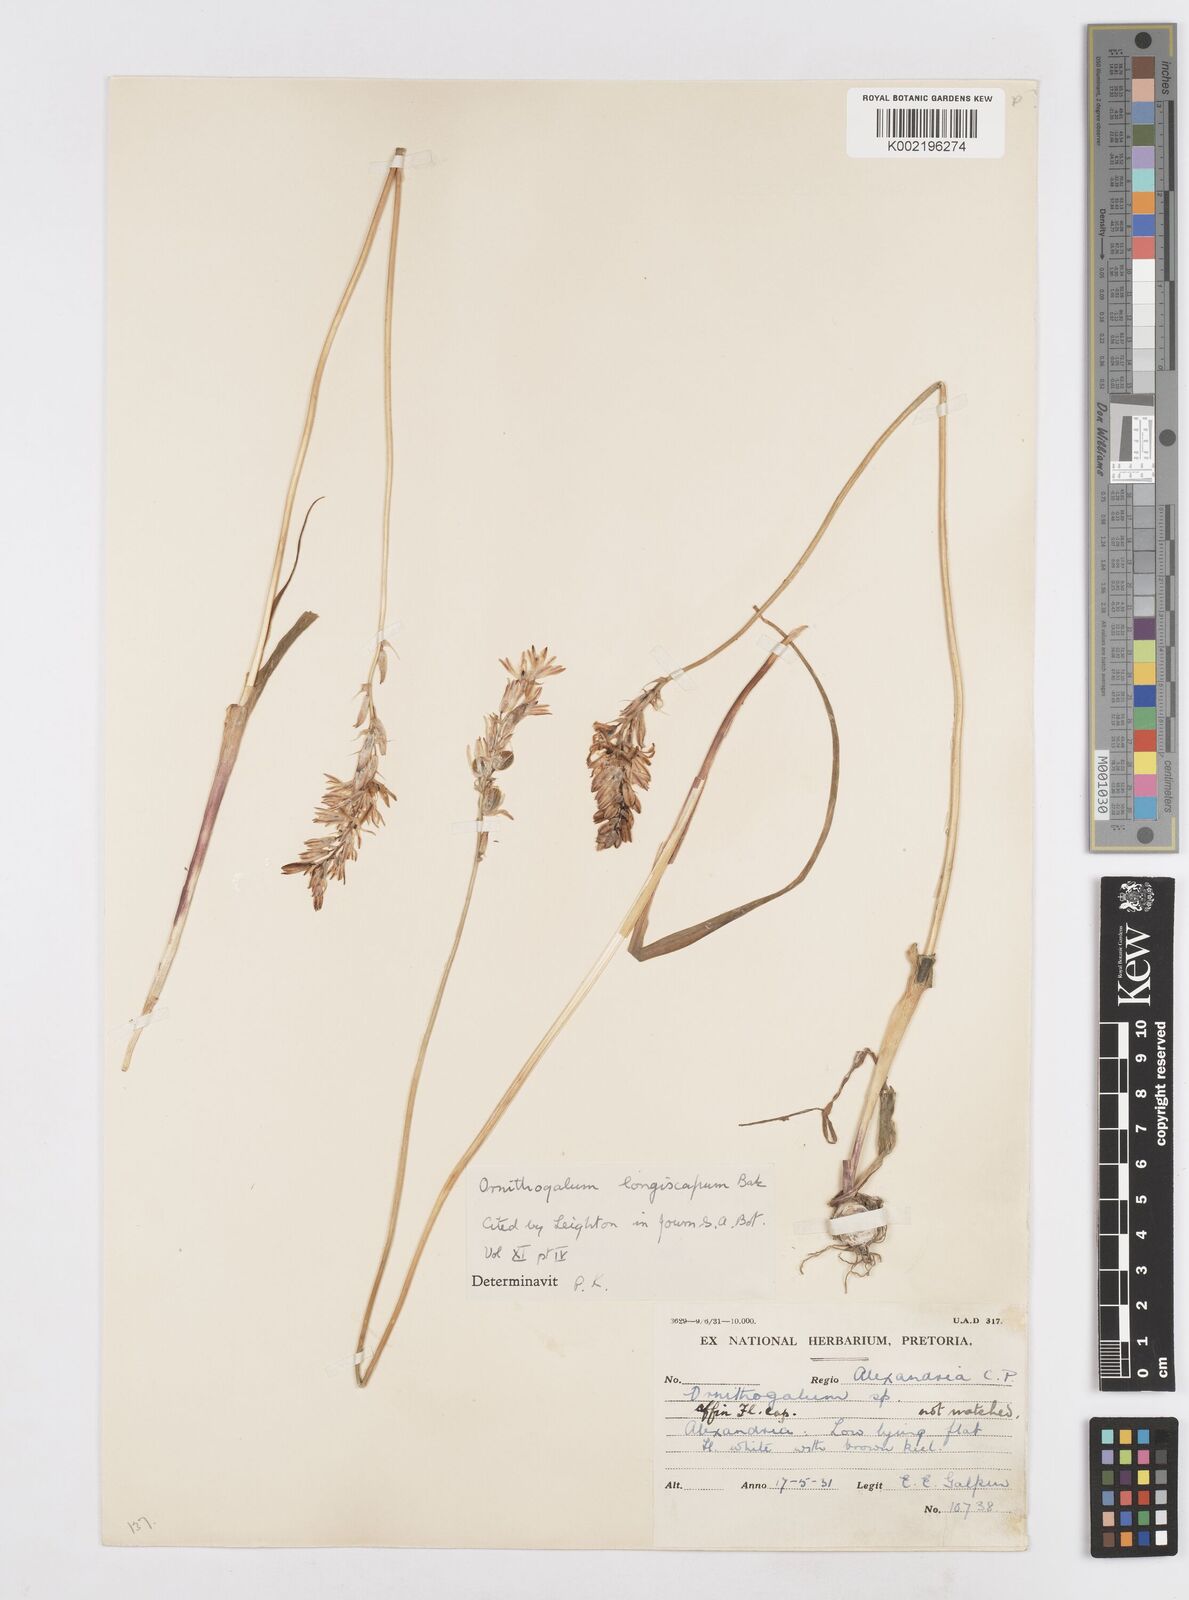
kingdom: Plantae
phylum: Tracheophyta
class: Liliopsida
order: Asparagales
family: Asparagaceae
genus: Ornithogalum
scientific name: Ornithogalum graminifolium
